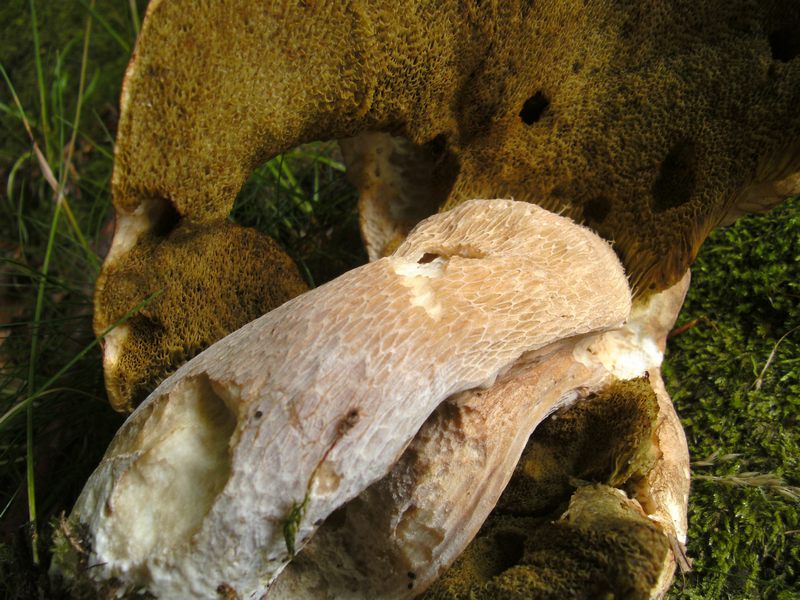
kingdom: Fungi
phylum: Basidiomycota
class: Agaricomycetes
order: Boletales
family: Boletaceae
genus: Boletus
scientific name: Boletus edulis
